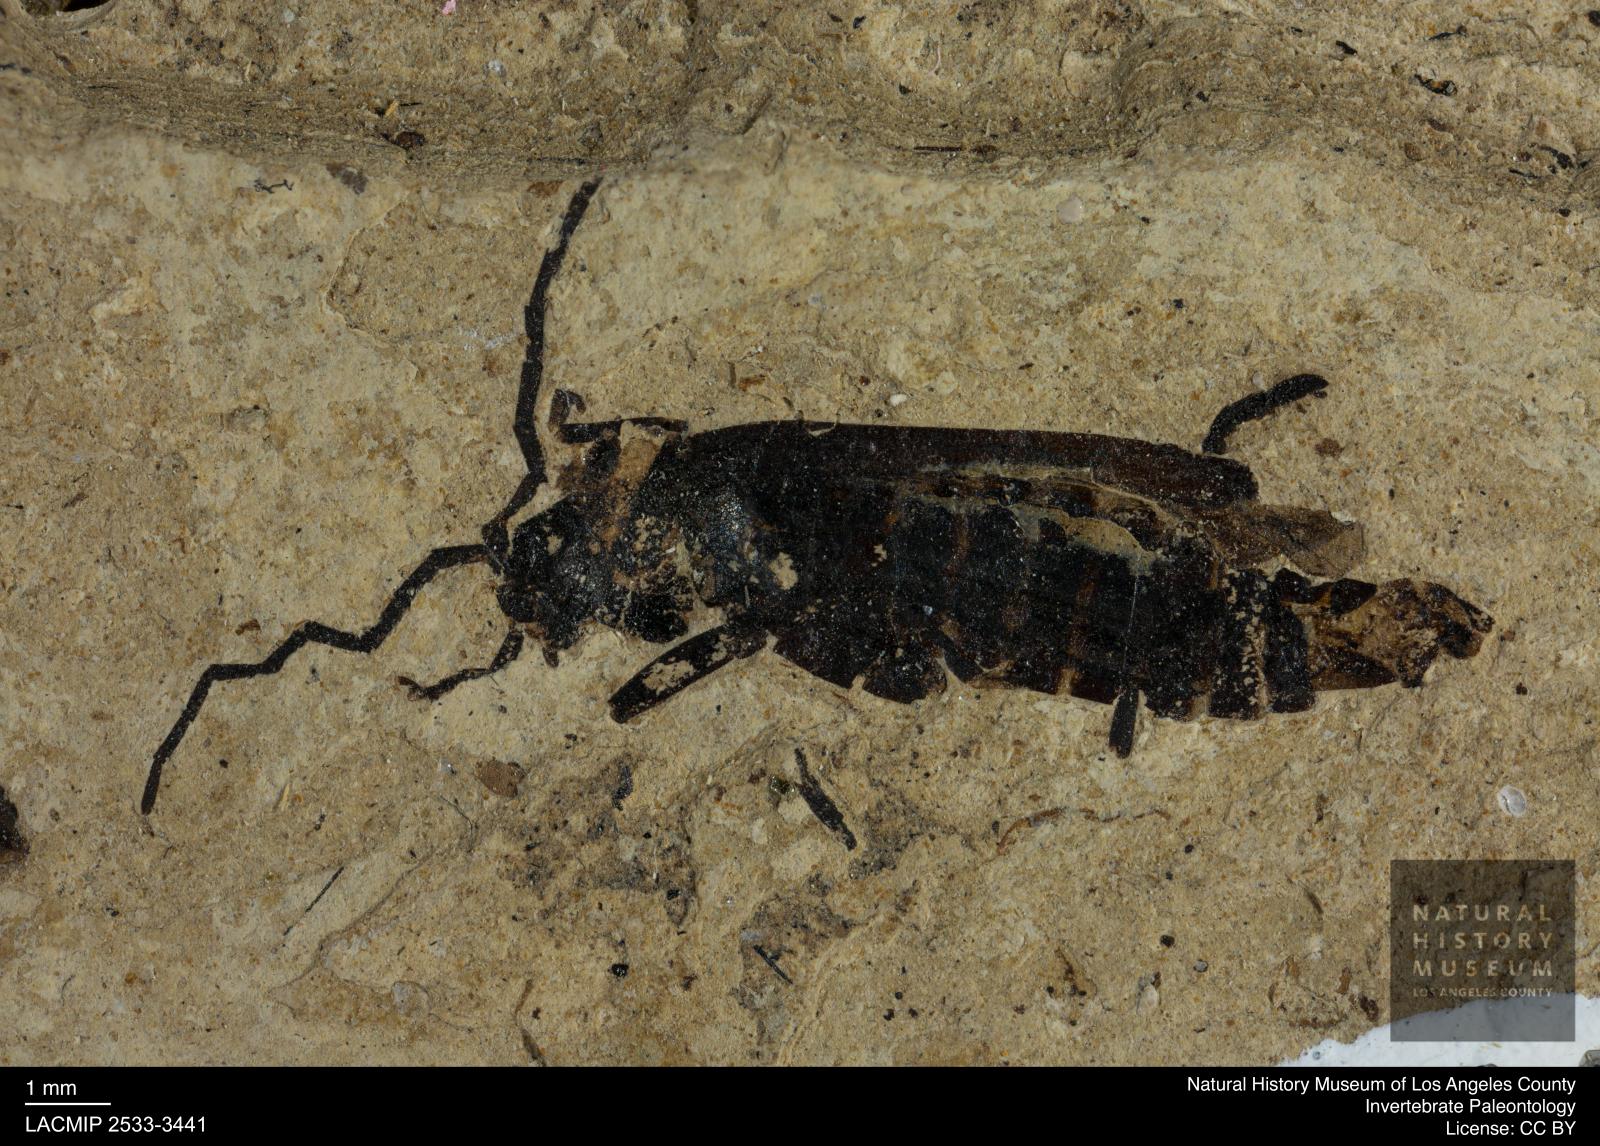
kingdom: Animalia
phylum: Arthropoda
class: Insecta
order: Coleoptera
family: Cantharidae
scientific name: Cantharidae
